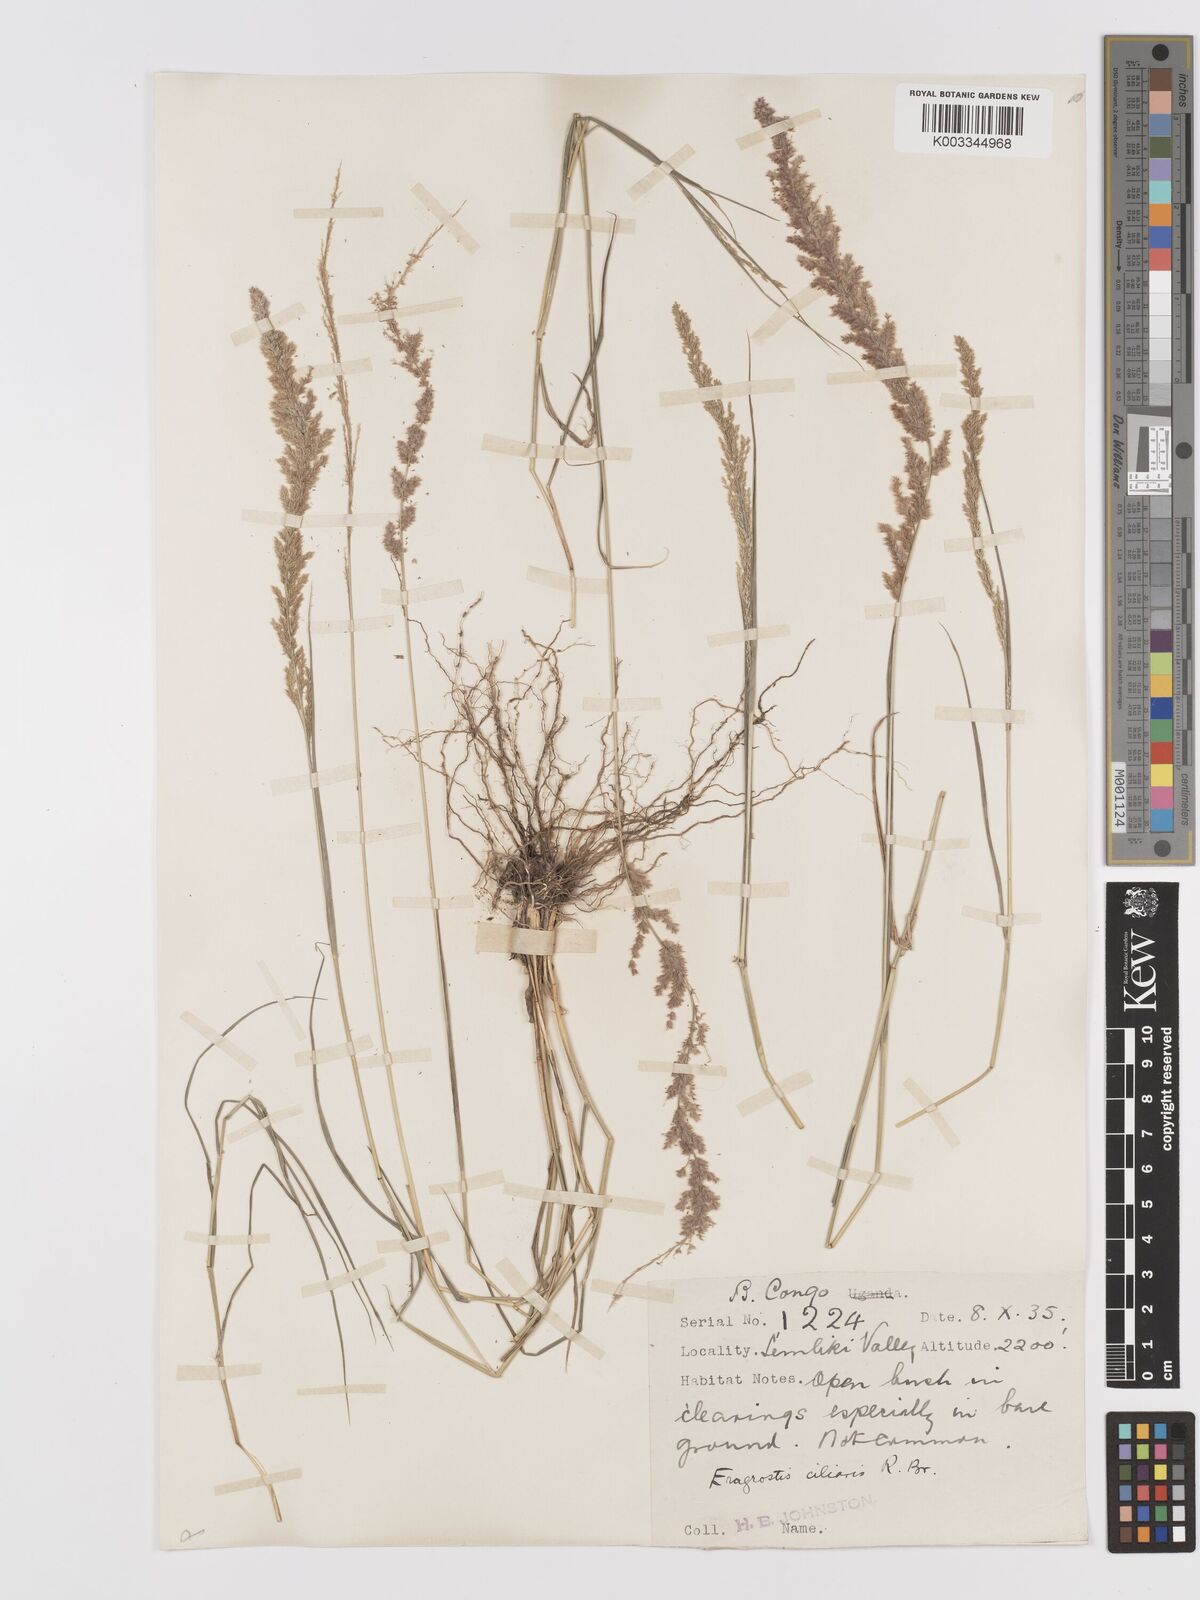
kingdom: Plantae
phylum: Tracheophyta
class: Liliopsida
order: Poales
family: Poaceae
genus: Eragrostis
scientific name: Eragrostis ciliaris
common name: Gophertail lovegrass
